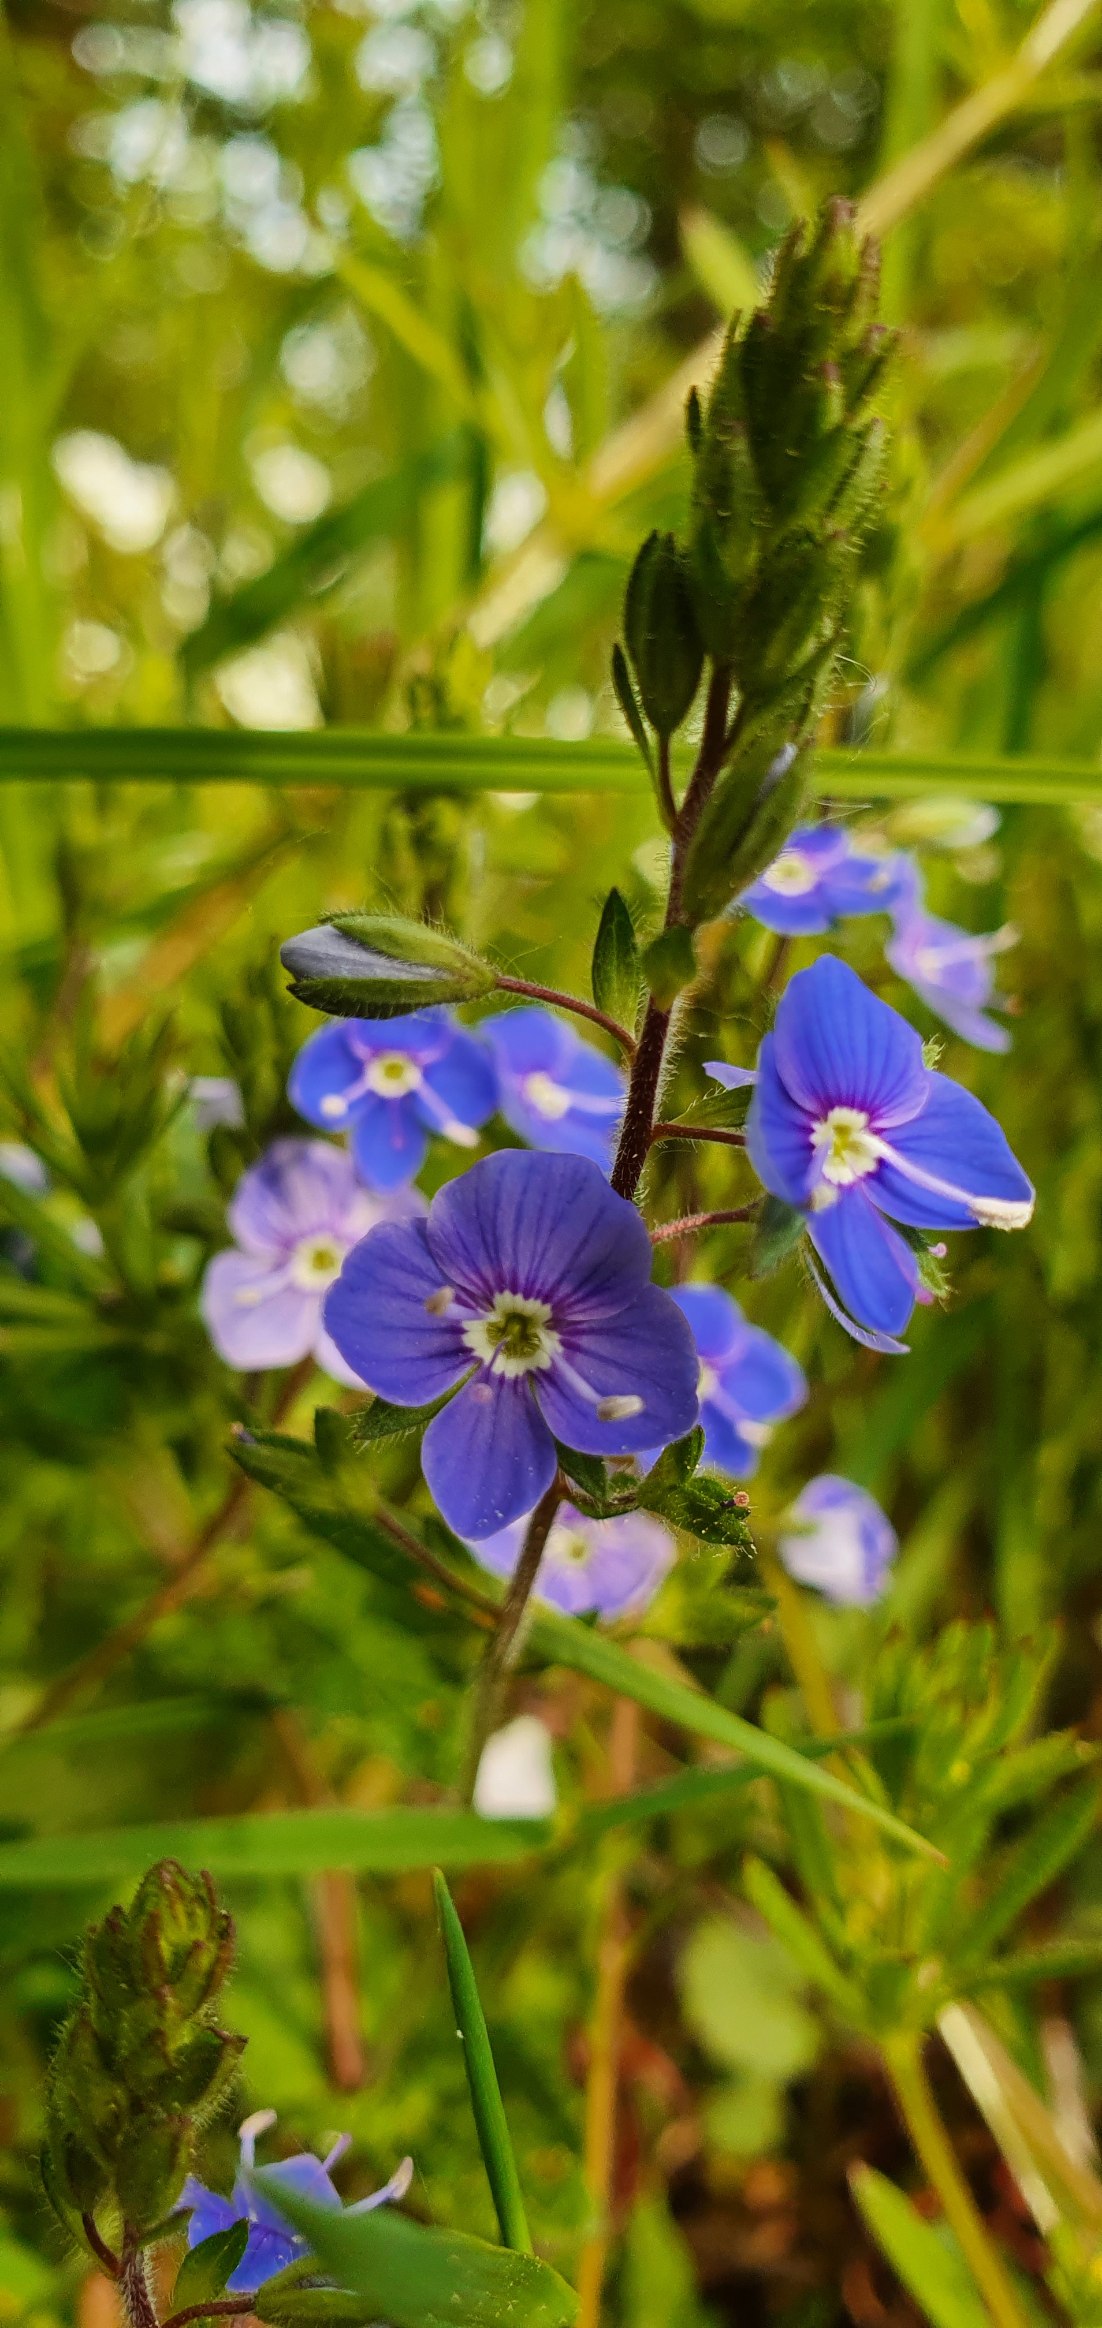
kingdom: Plantae
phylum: Tracheophyta
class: Magnoliopsida
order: Lamiales
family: Plantaginaceae
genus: Veronica
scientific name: Veronica chamaedrys
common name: Tveskægget ærenpris
